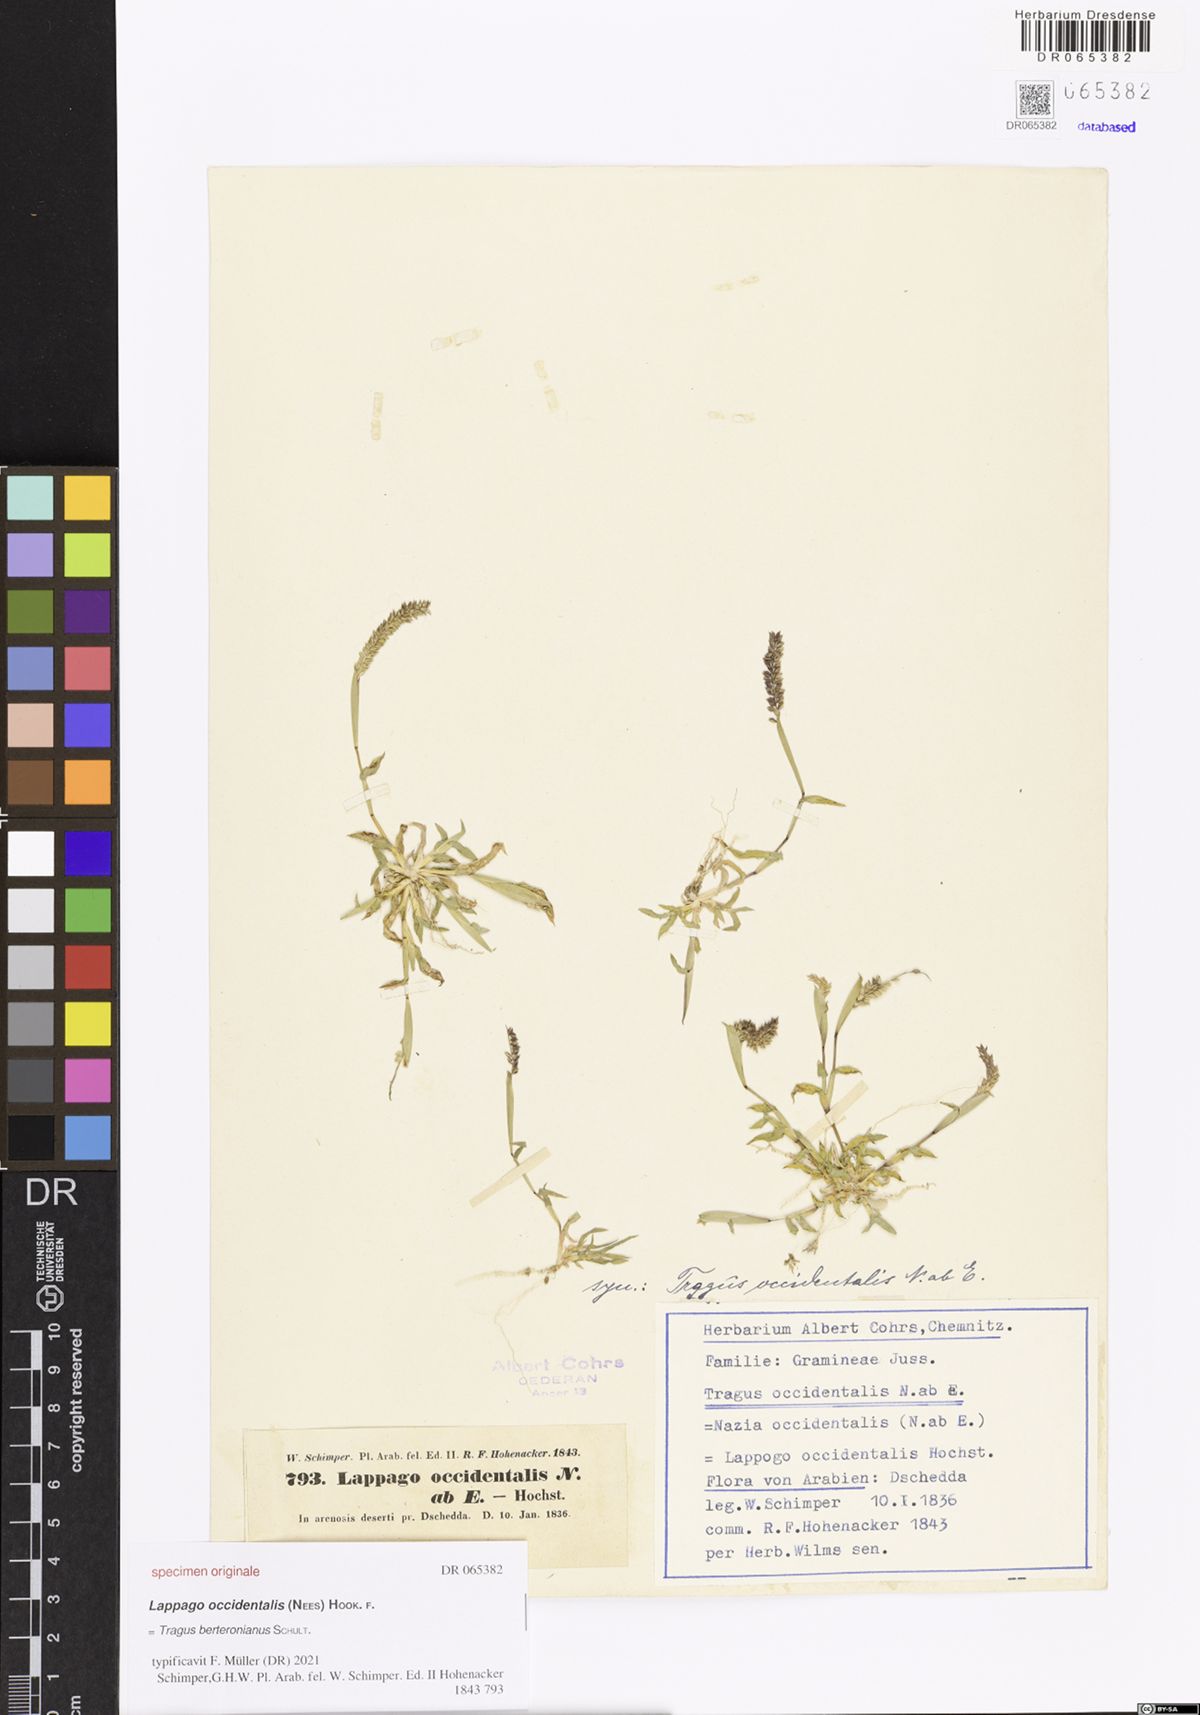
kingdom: Plantae
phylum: Tracheophyta
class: Liliopsida
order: Poales
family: Poaceae
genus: Tragus
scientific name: Tragus berteronianus
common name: African bur-grass
